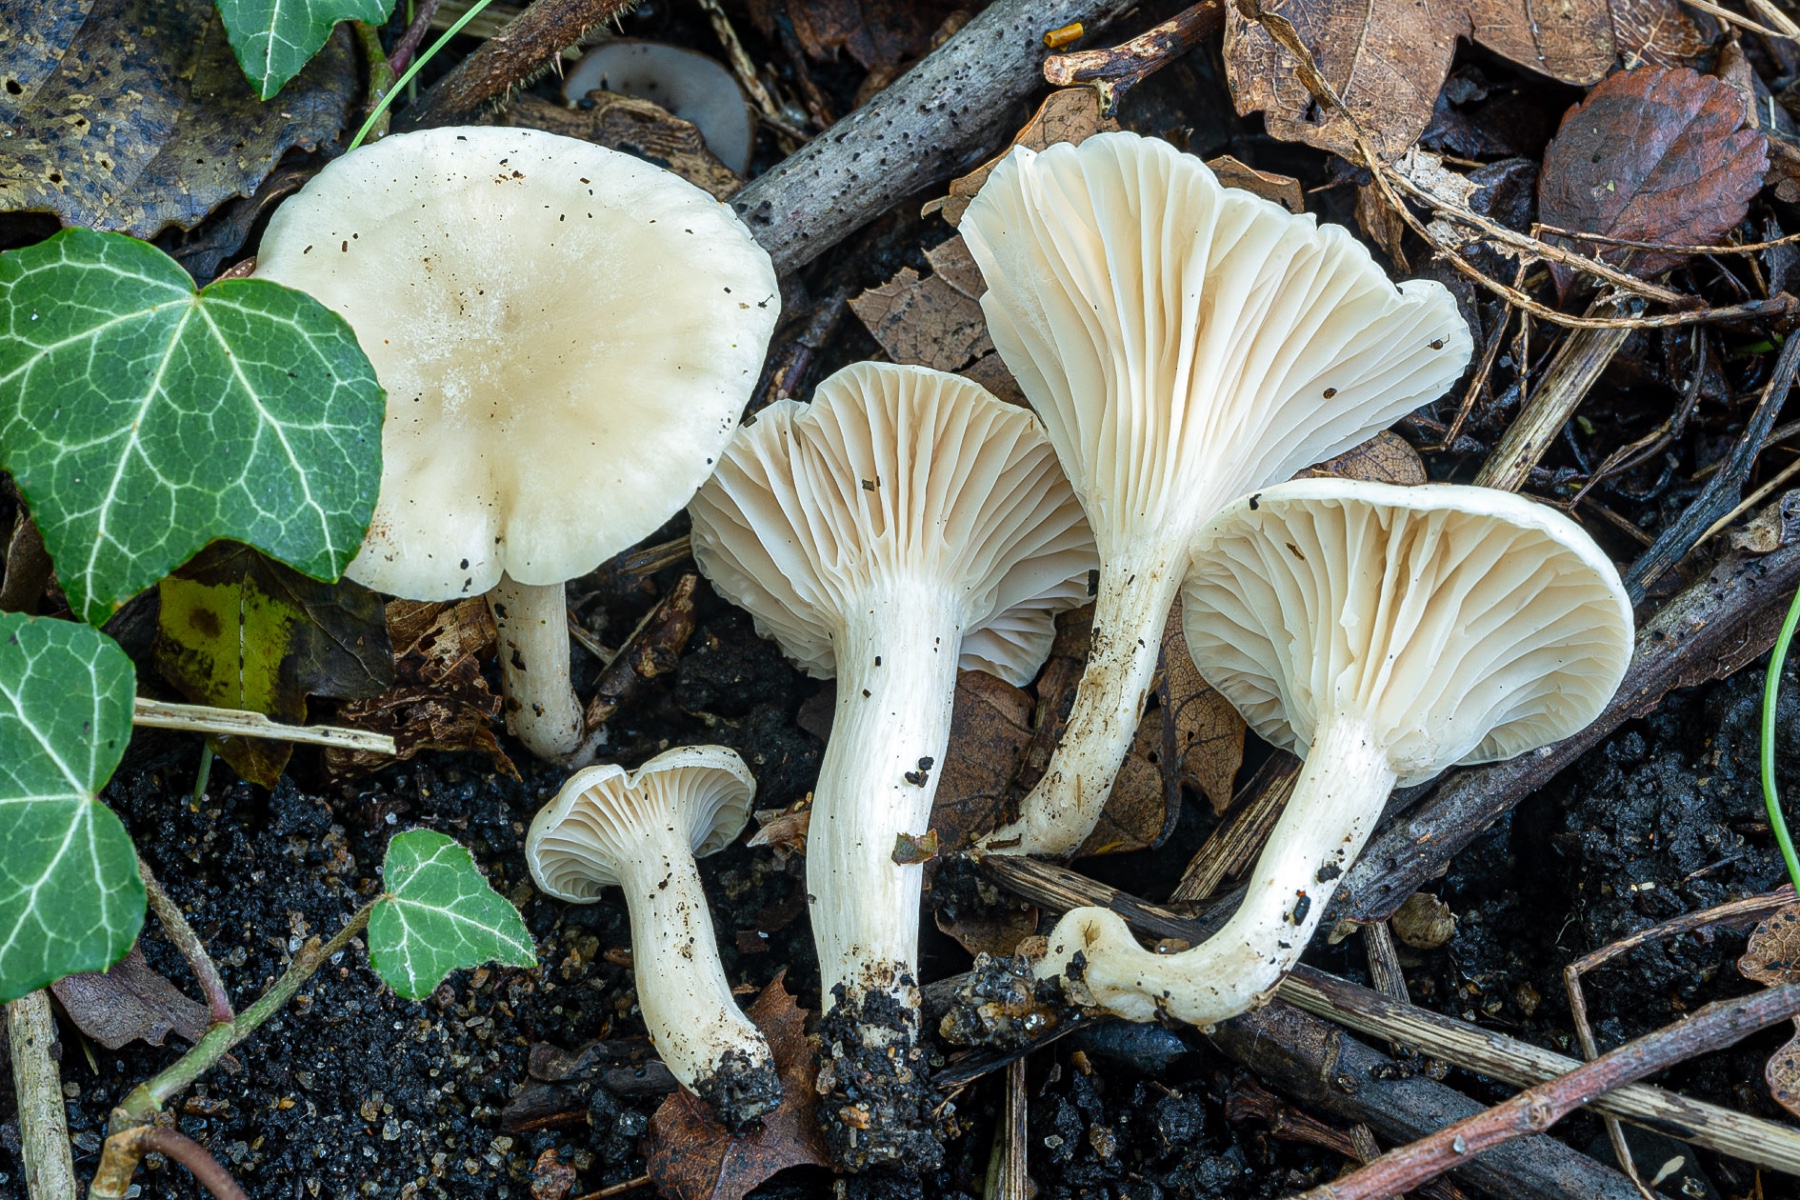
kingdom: Fungi
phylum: Basidiomycota
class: Agaricomycetes
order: Agaricales
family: Hygrophoraceae
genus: Cuphophyllus
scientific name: Cuphophyllus
